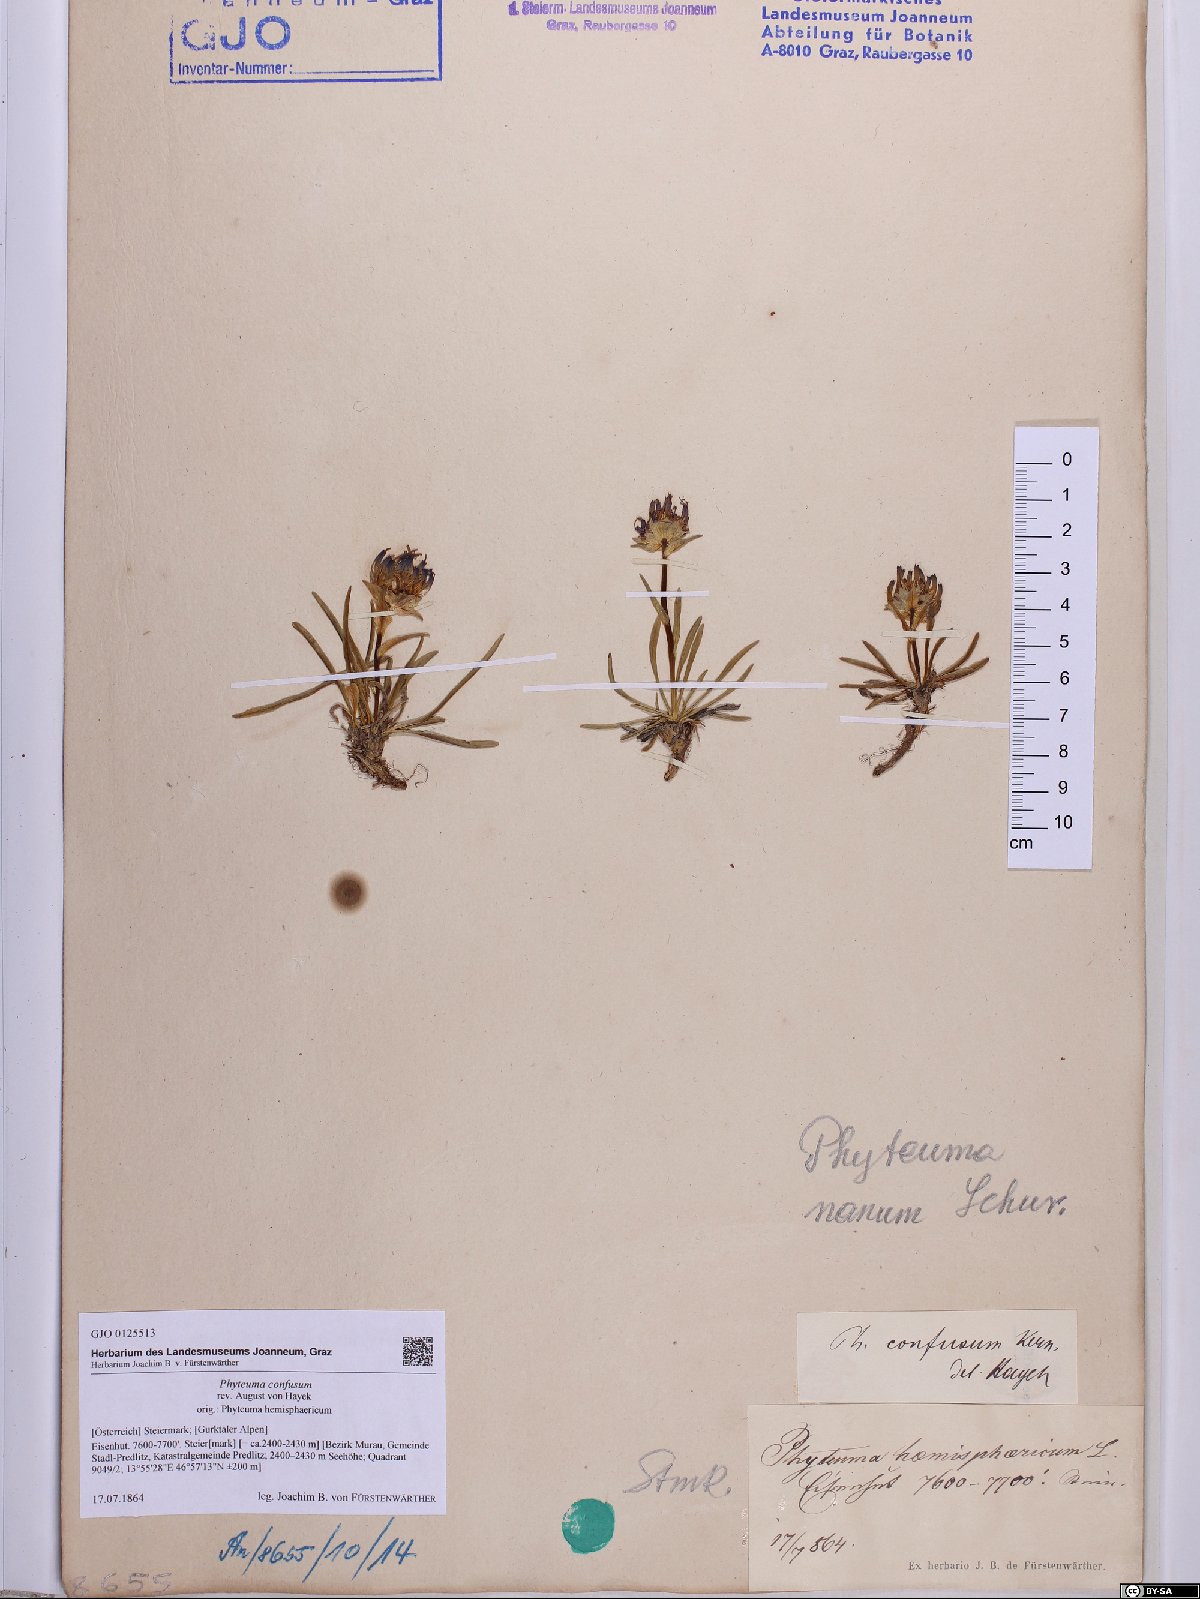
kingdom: Plantae
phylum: Tracheophyta
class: Magnoliopsida
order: Asterales
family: Campanulaceae
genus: Phyteuma
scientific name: Phyteuma confusum
